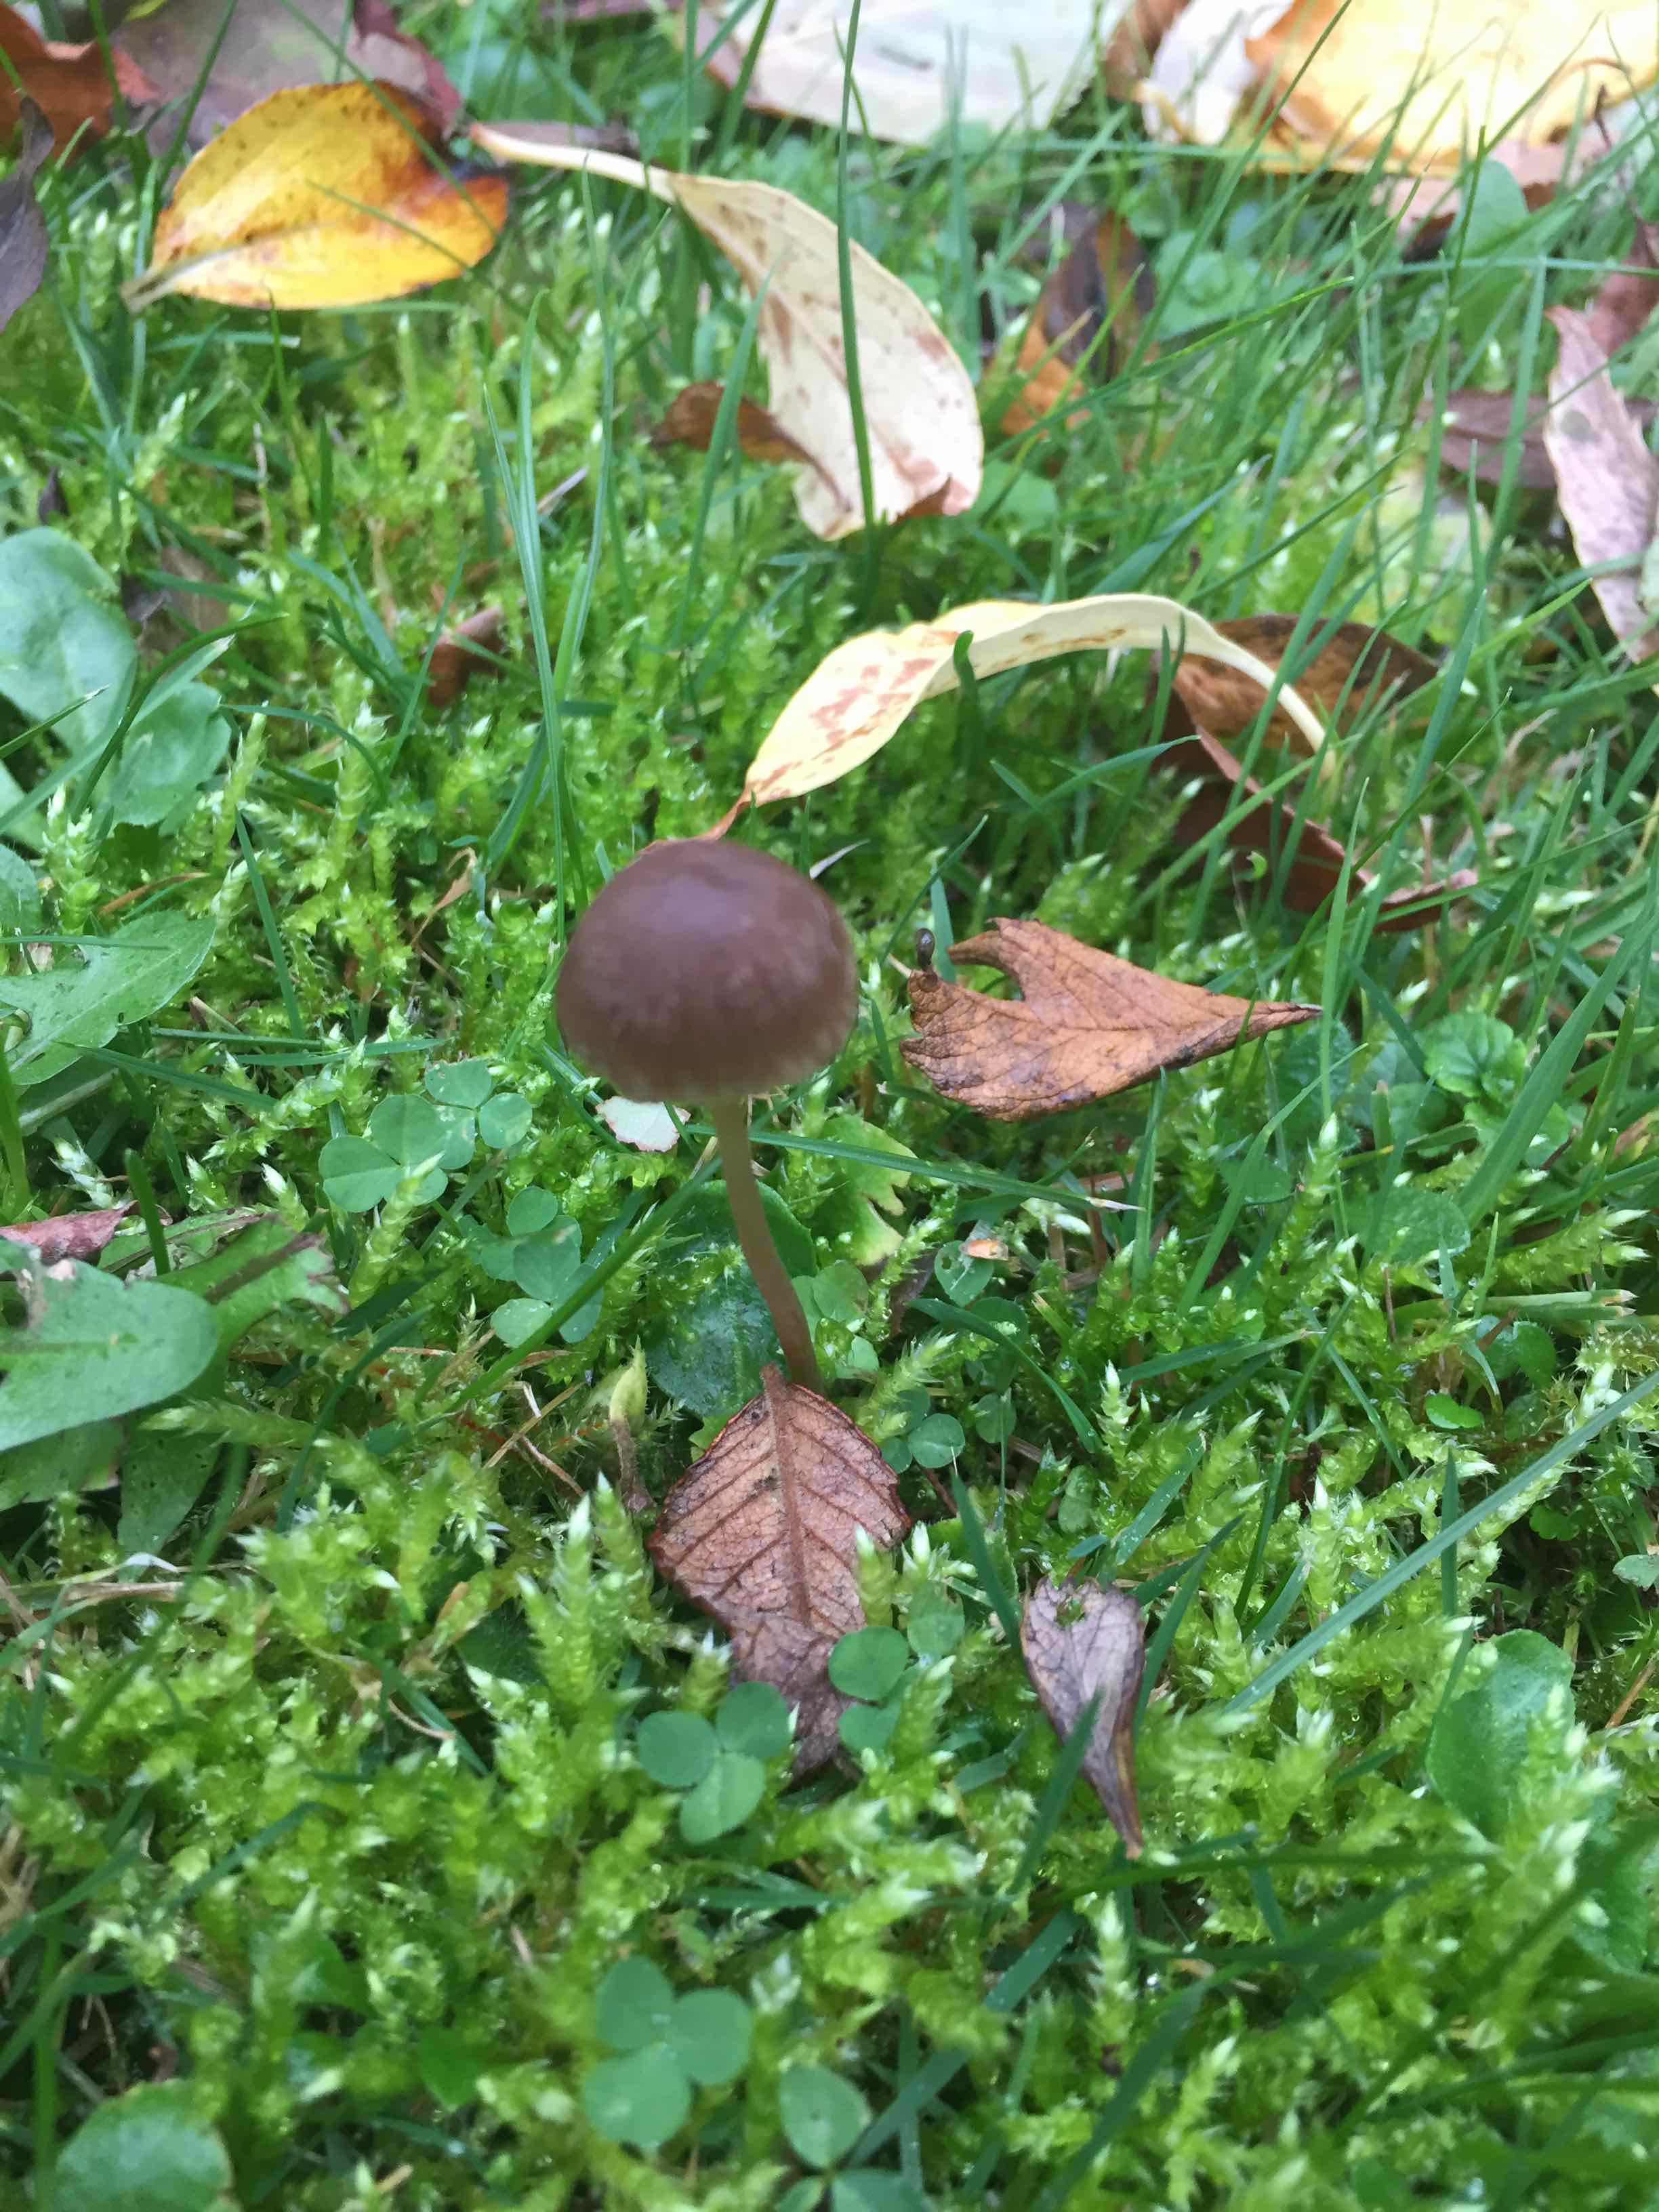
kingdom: Fungi
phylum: Basidiomycota
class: Agaricomycetes
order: Agaricales
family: Psathyrellaceae
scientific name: Psathyrellaceae
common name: mørkhatfamilien
